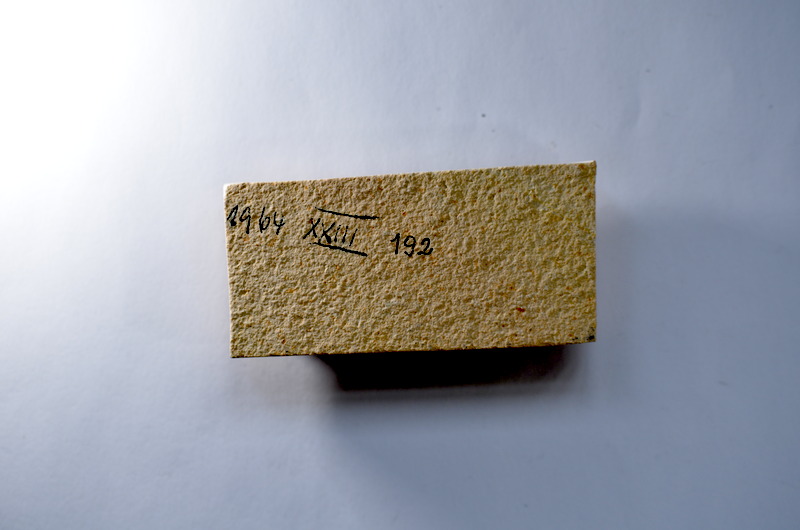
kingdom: Animalia
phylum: Chordata
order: Salmoniformes
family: Orthogonikleithridae
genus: Leptolepides
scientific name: Leptolepides
